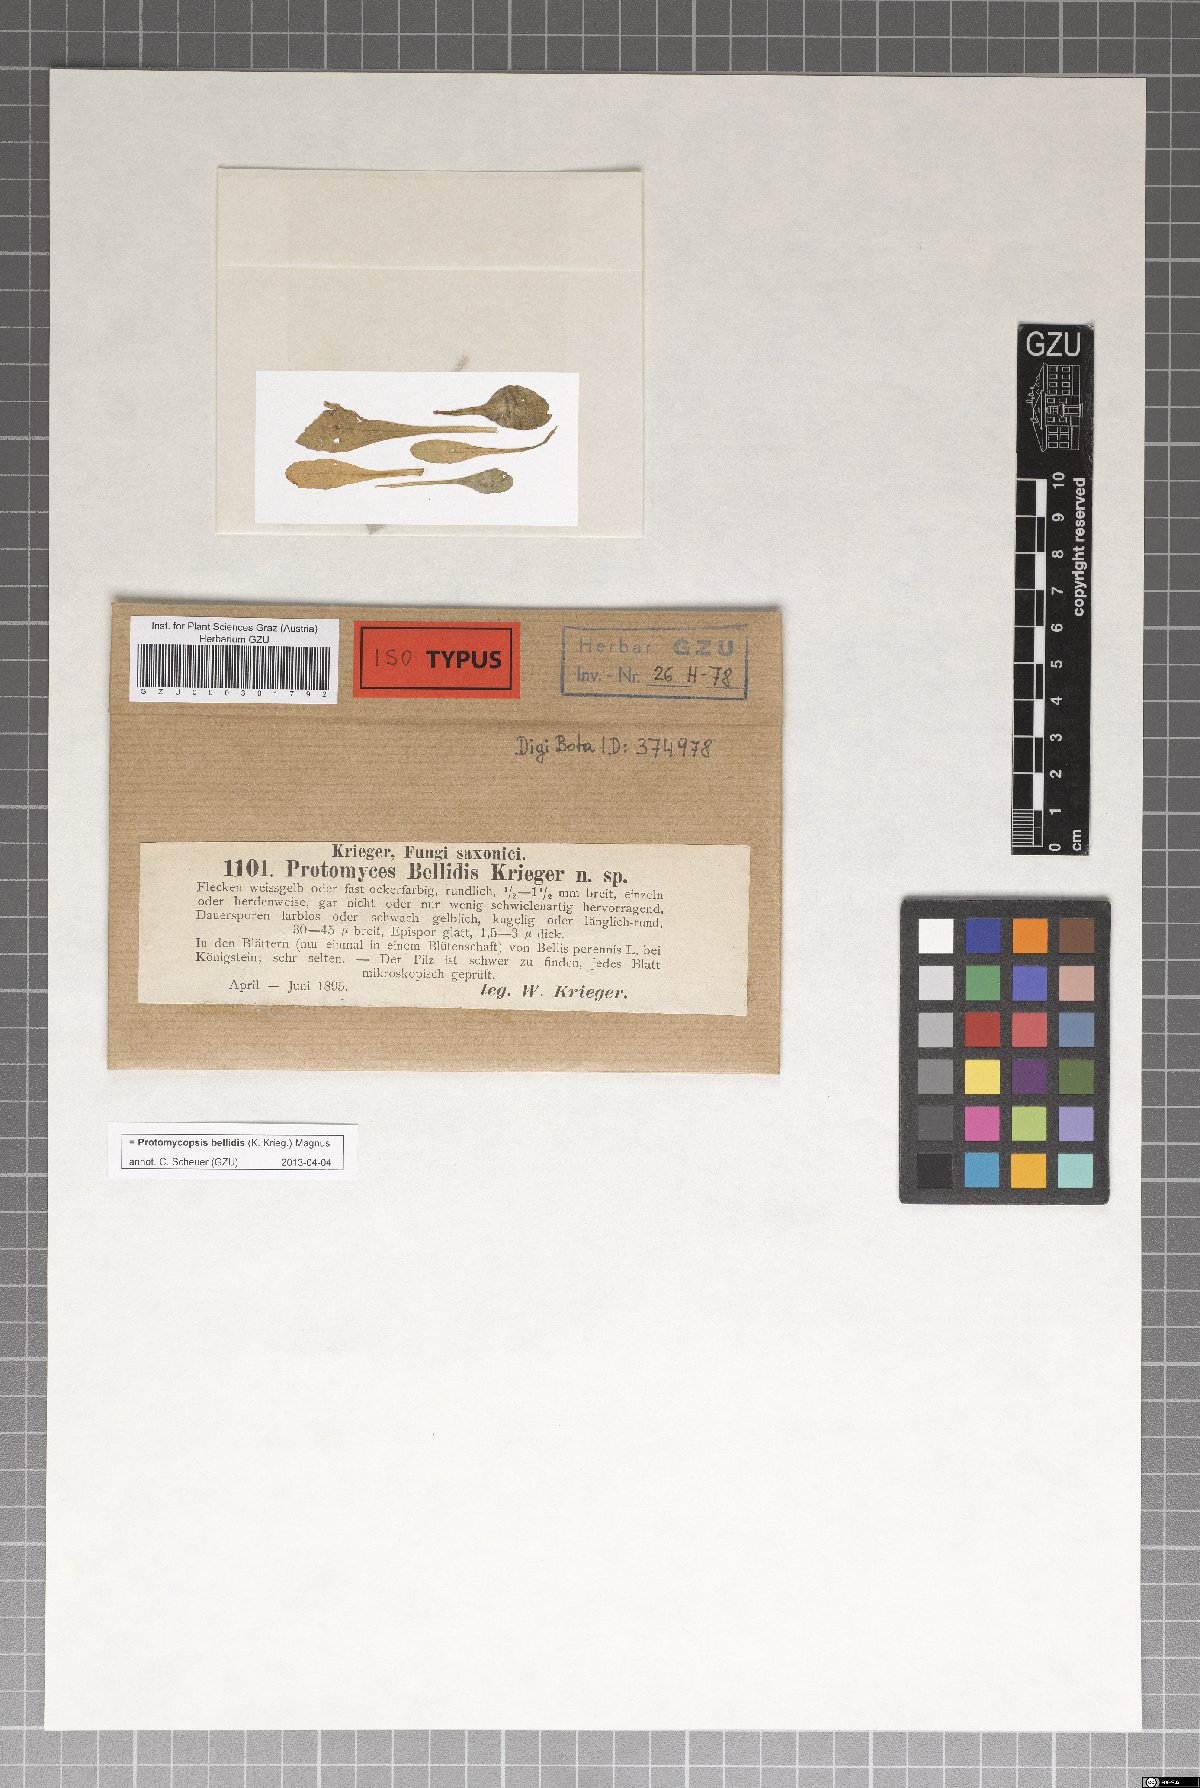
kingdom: Fungi
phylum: Ascomycota
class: Taphrinomycetes
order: Taphrinales
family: Taphrinaceae
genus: Protomycopsis
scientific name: Protomycopsis bellidis
